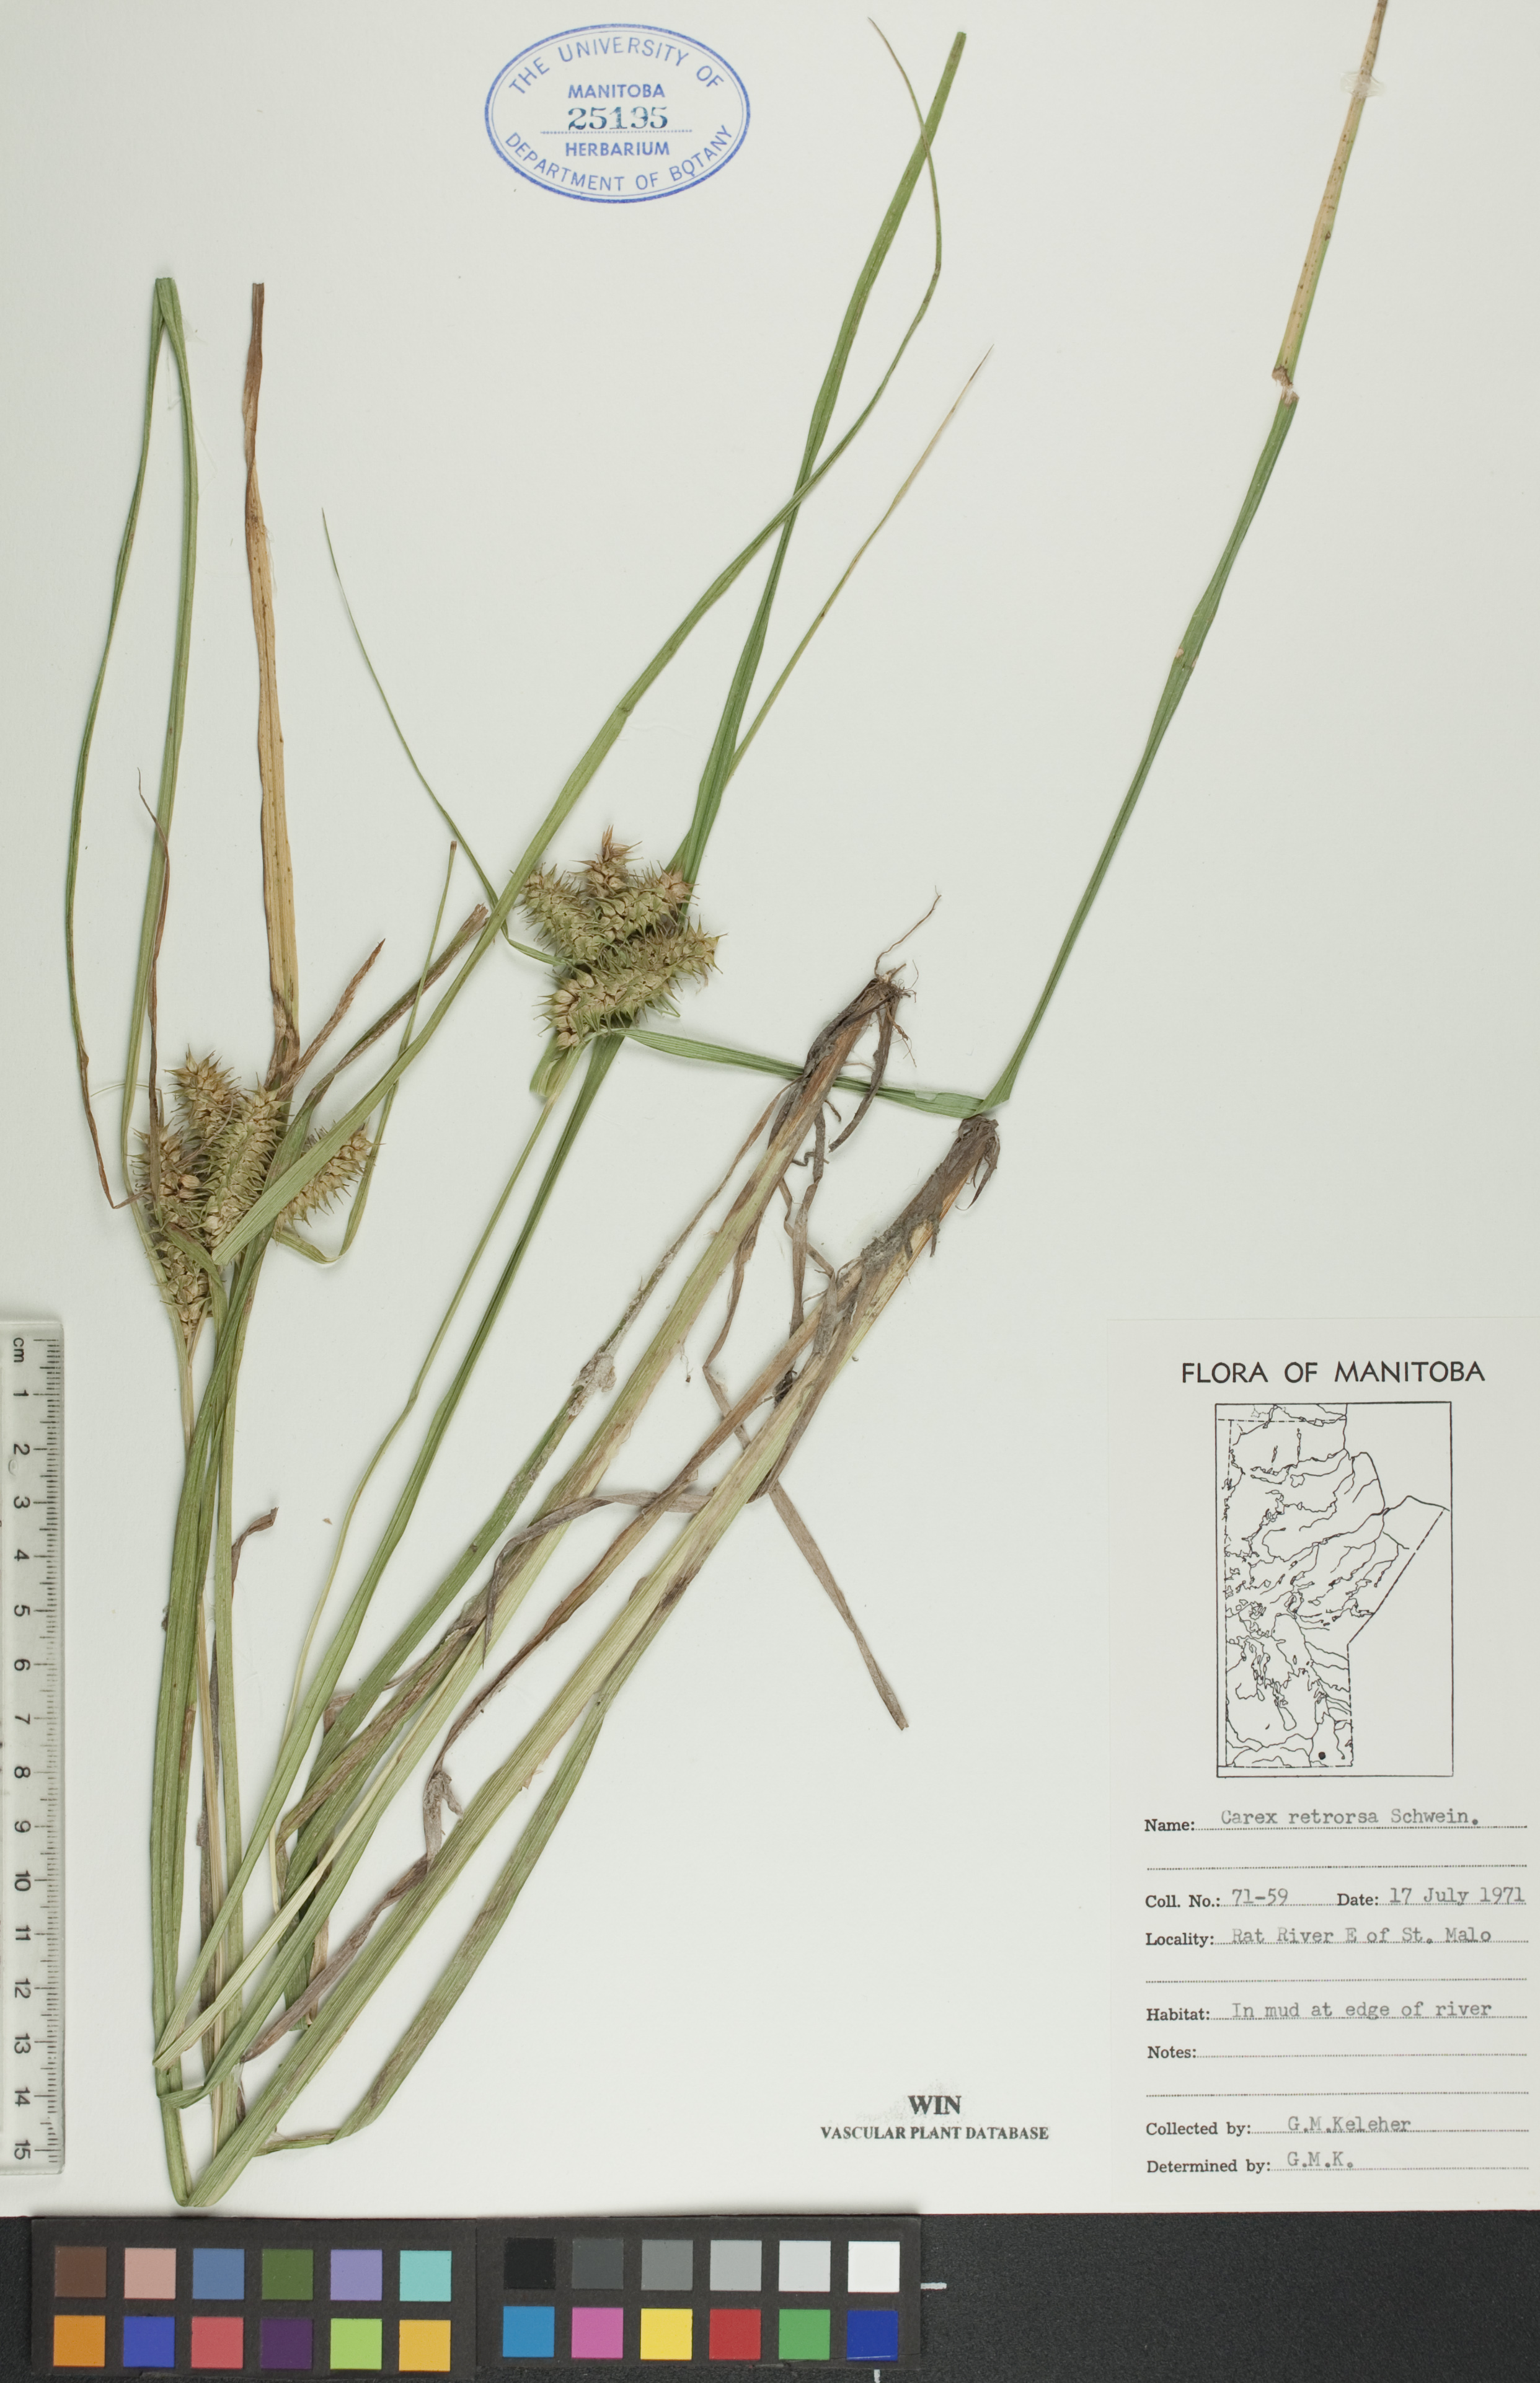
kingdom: Plantae
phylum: Tracheophyta
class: Liliopsida
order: Poales
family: Cyperaceae
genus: Carex
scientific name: Carex retrorsa
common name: Knot-sheath sedge
